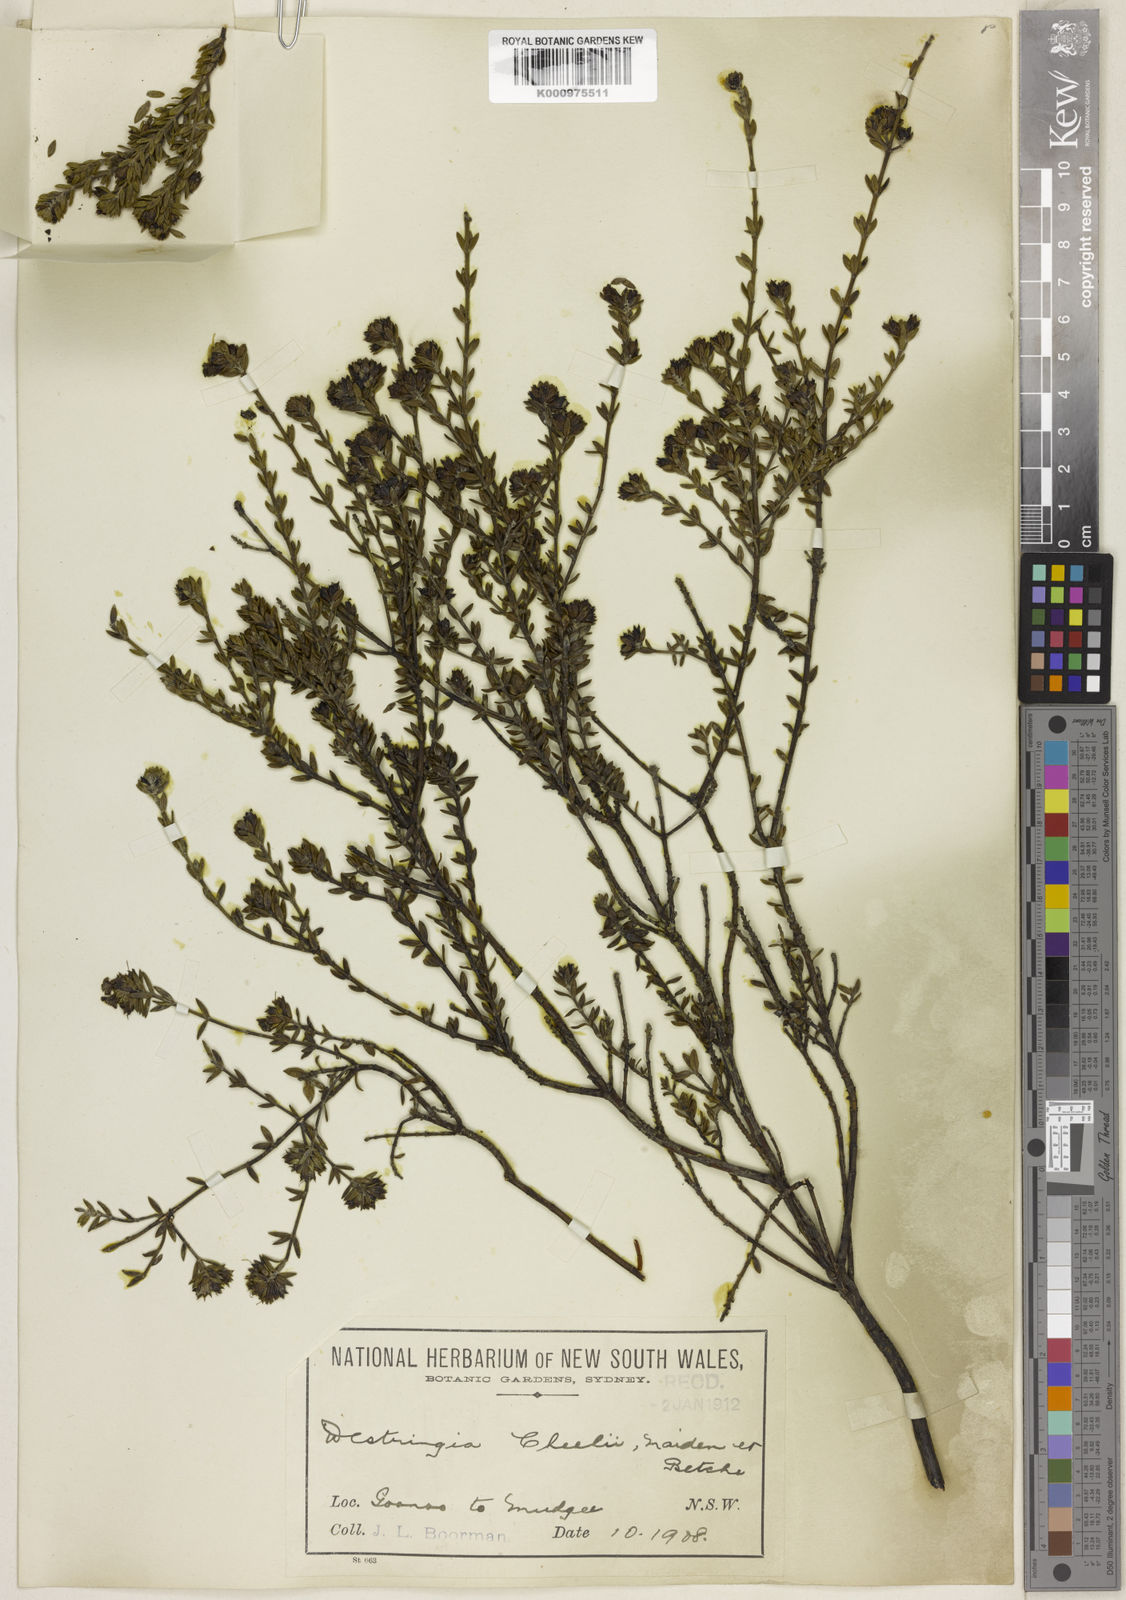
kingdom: Plantae
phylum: Tracheophyta
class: Magnoliopsida
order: Lamiales
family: Lamiaceae
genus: Westringia
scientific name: Westringia cheelii
